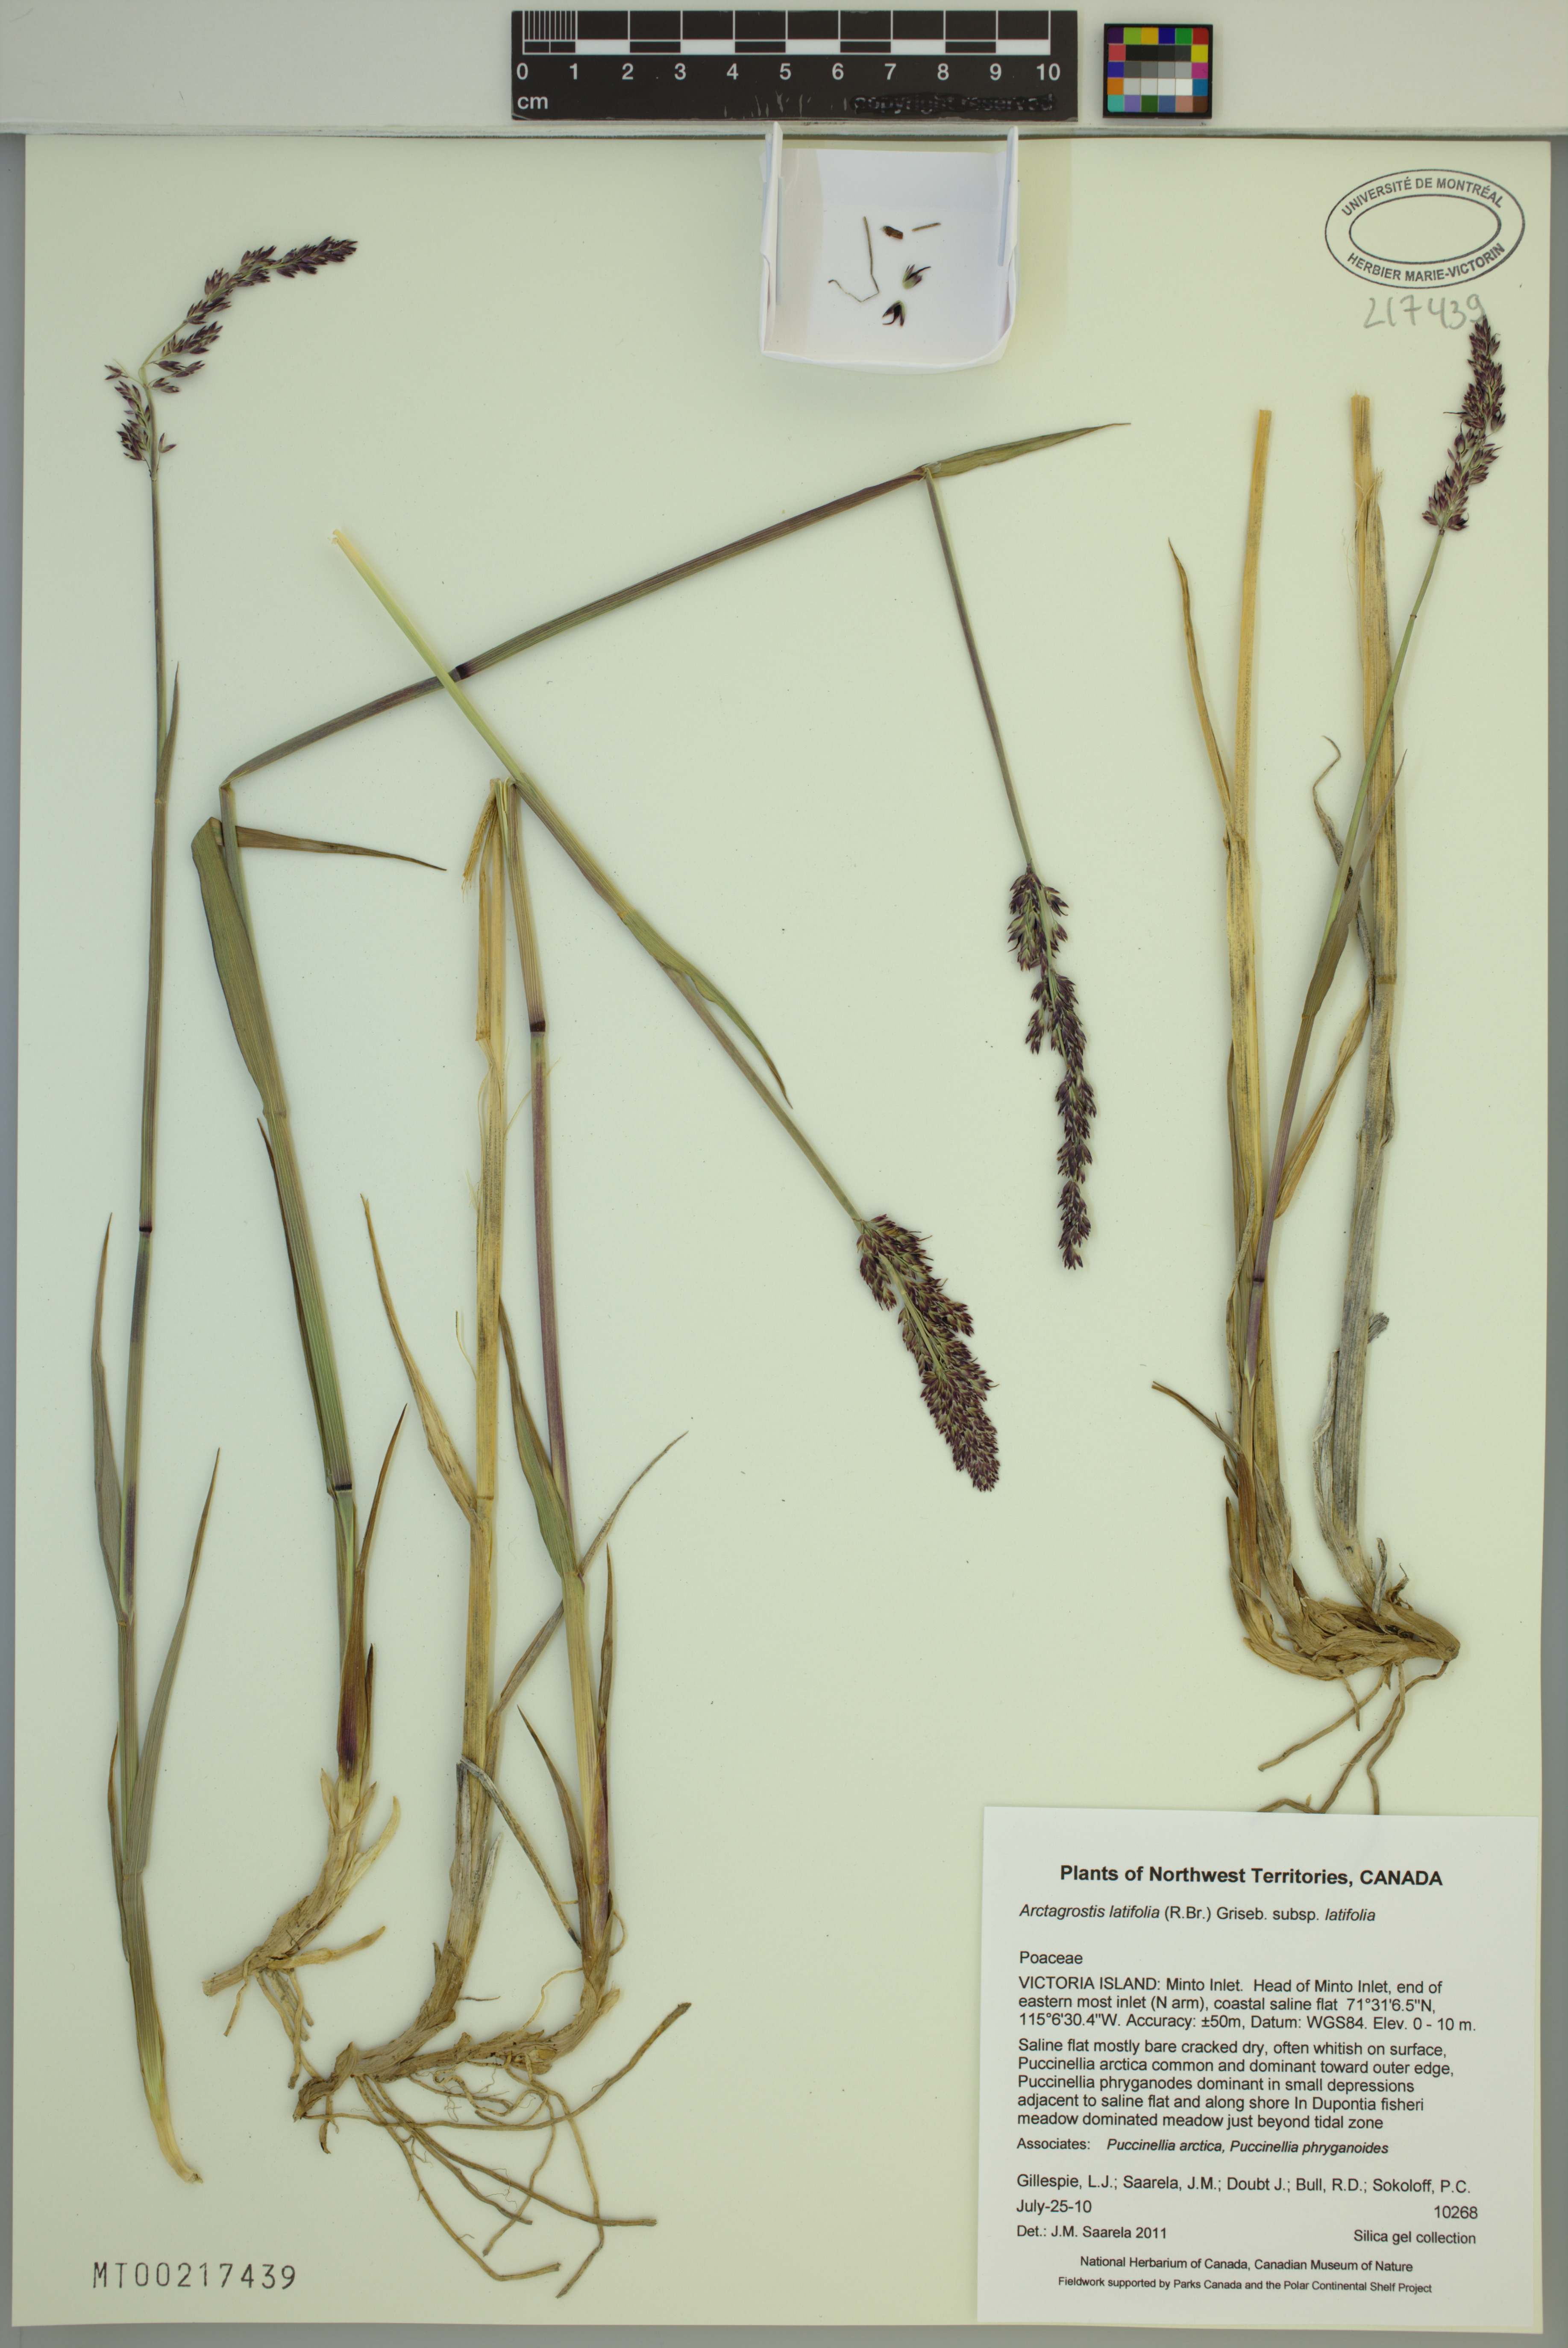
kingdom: Plantae
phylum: Tracheophyta
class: Liliopsida
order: Poales
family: Poaceae
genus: Arctagrostis
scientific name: Arctagrostis latifolia
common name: Arctic grass
